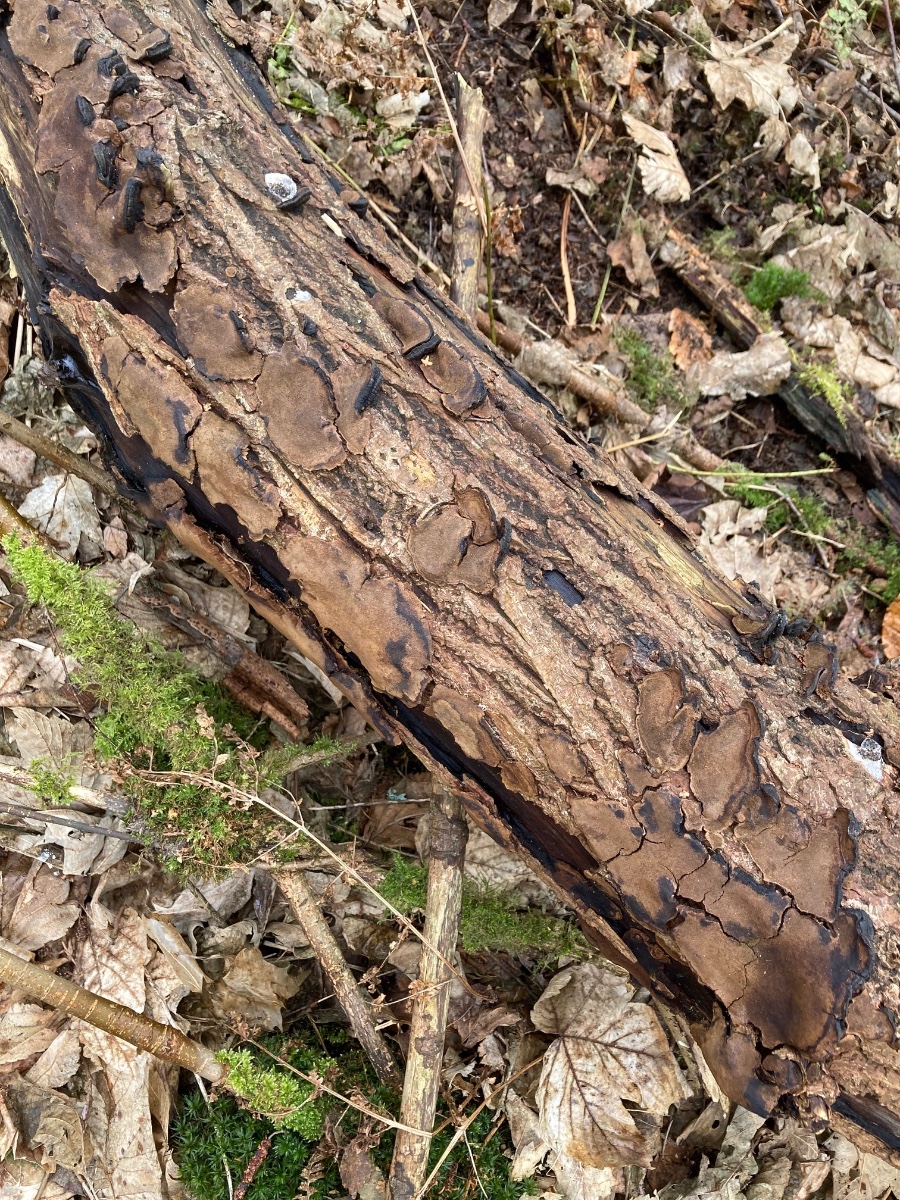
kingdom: Fungi
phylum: Basidiomycota
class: Agaricomycetes
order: Hymenochaetales
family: Hymenochaetaceae
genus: Phellinopsis
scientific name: Phellinopsis conchata
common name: pile-ildporesvamp
